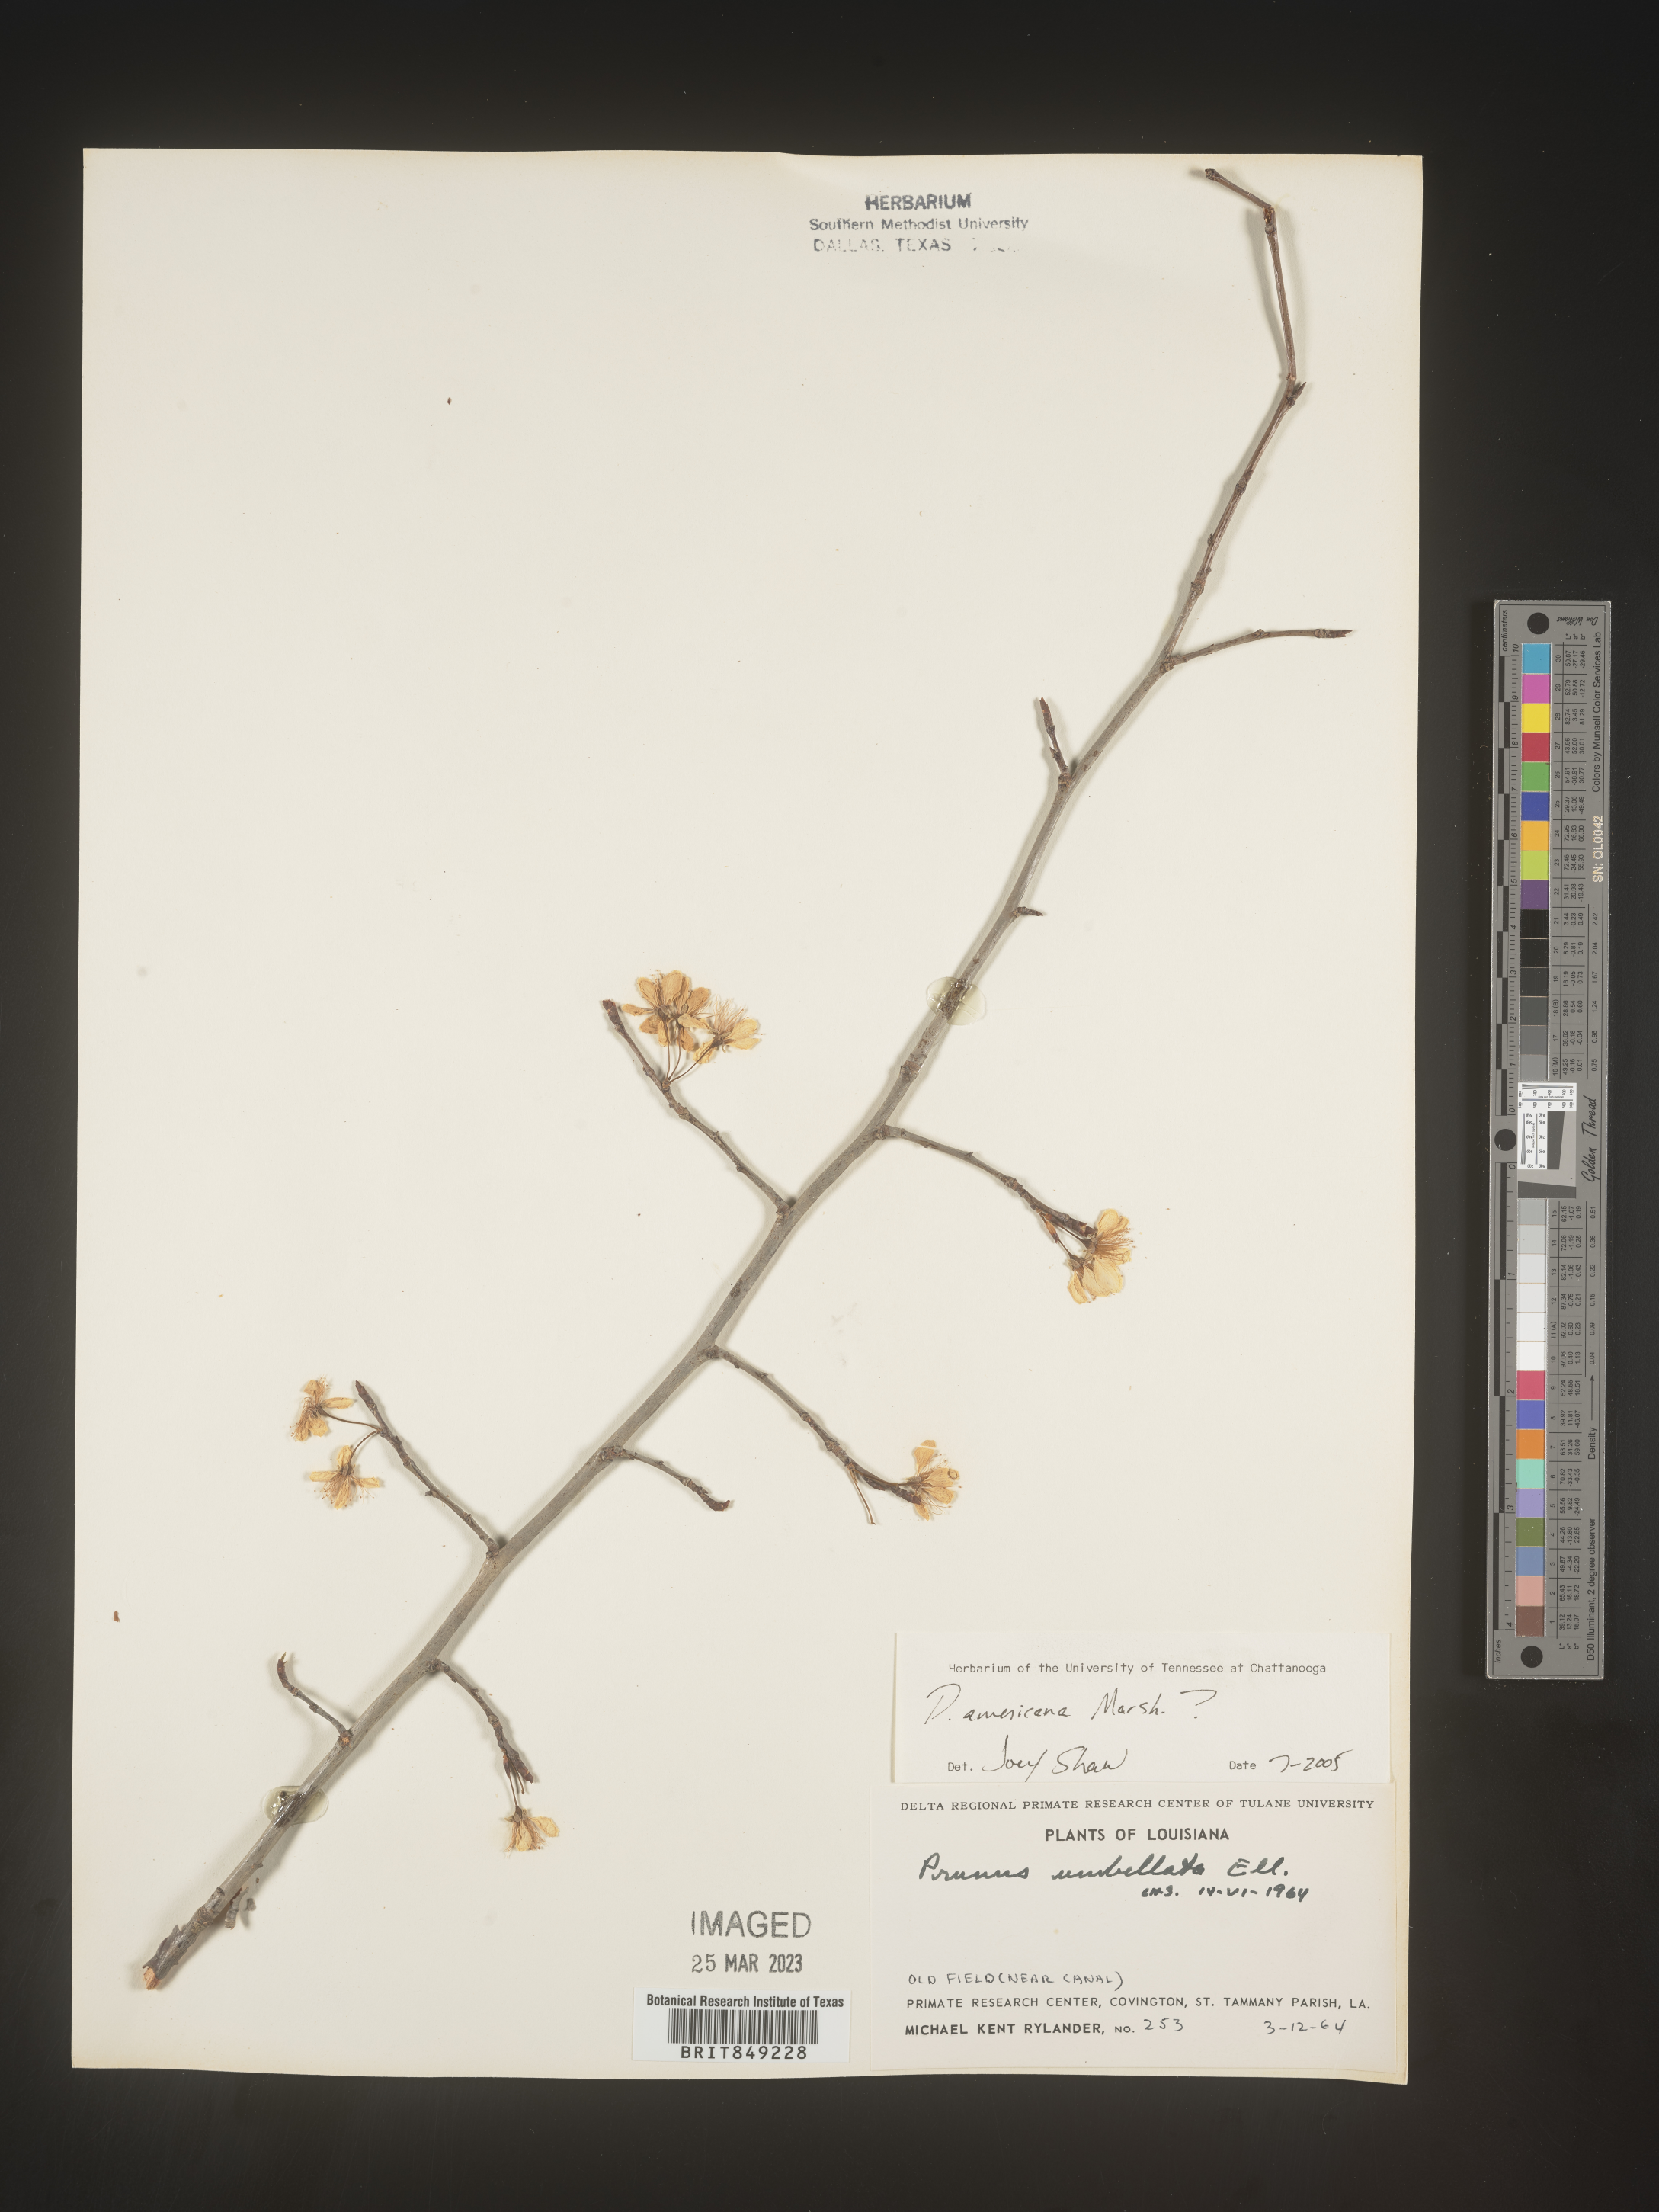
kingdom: Plantae
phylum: Tracheophyta
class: Magnoliopsida
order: Rosales
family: Rosaceae
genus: Prunus
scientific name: Prunus americana
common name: American plum
